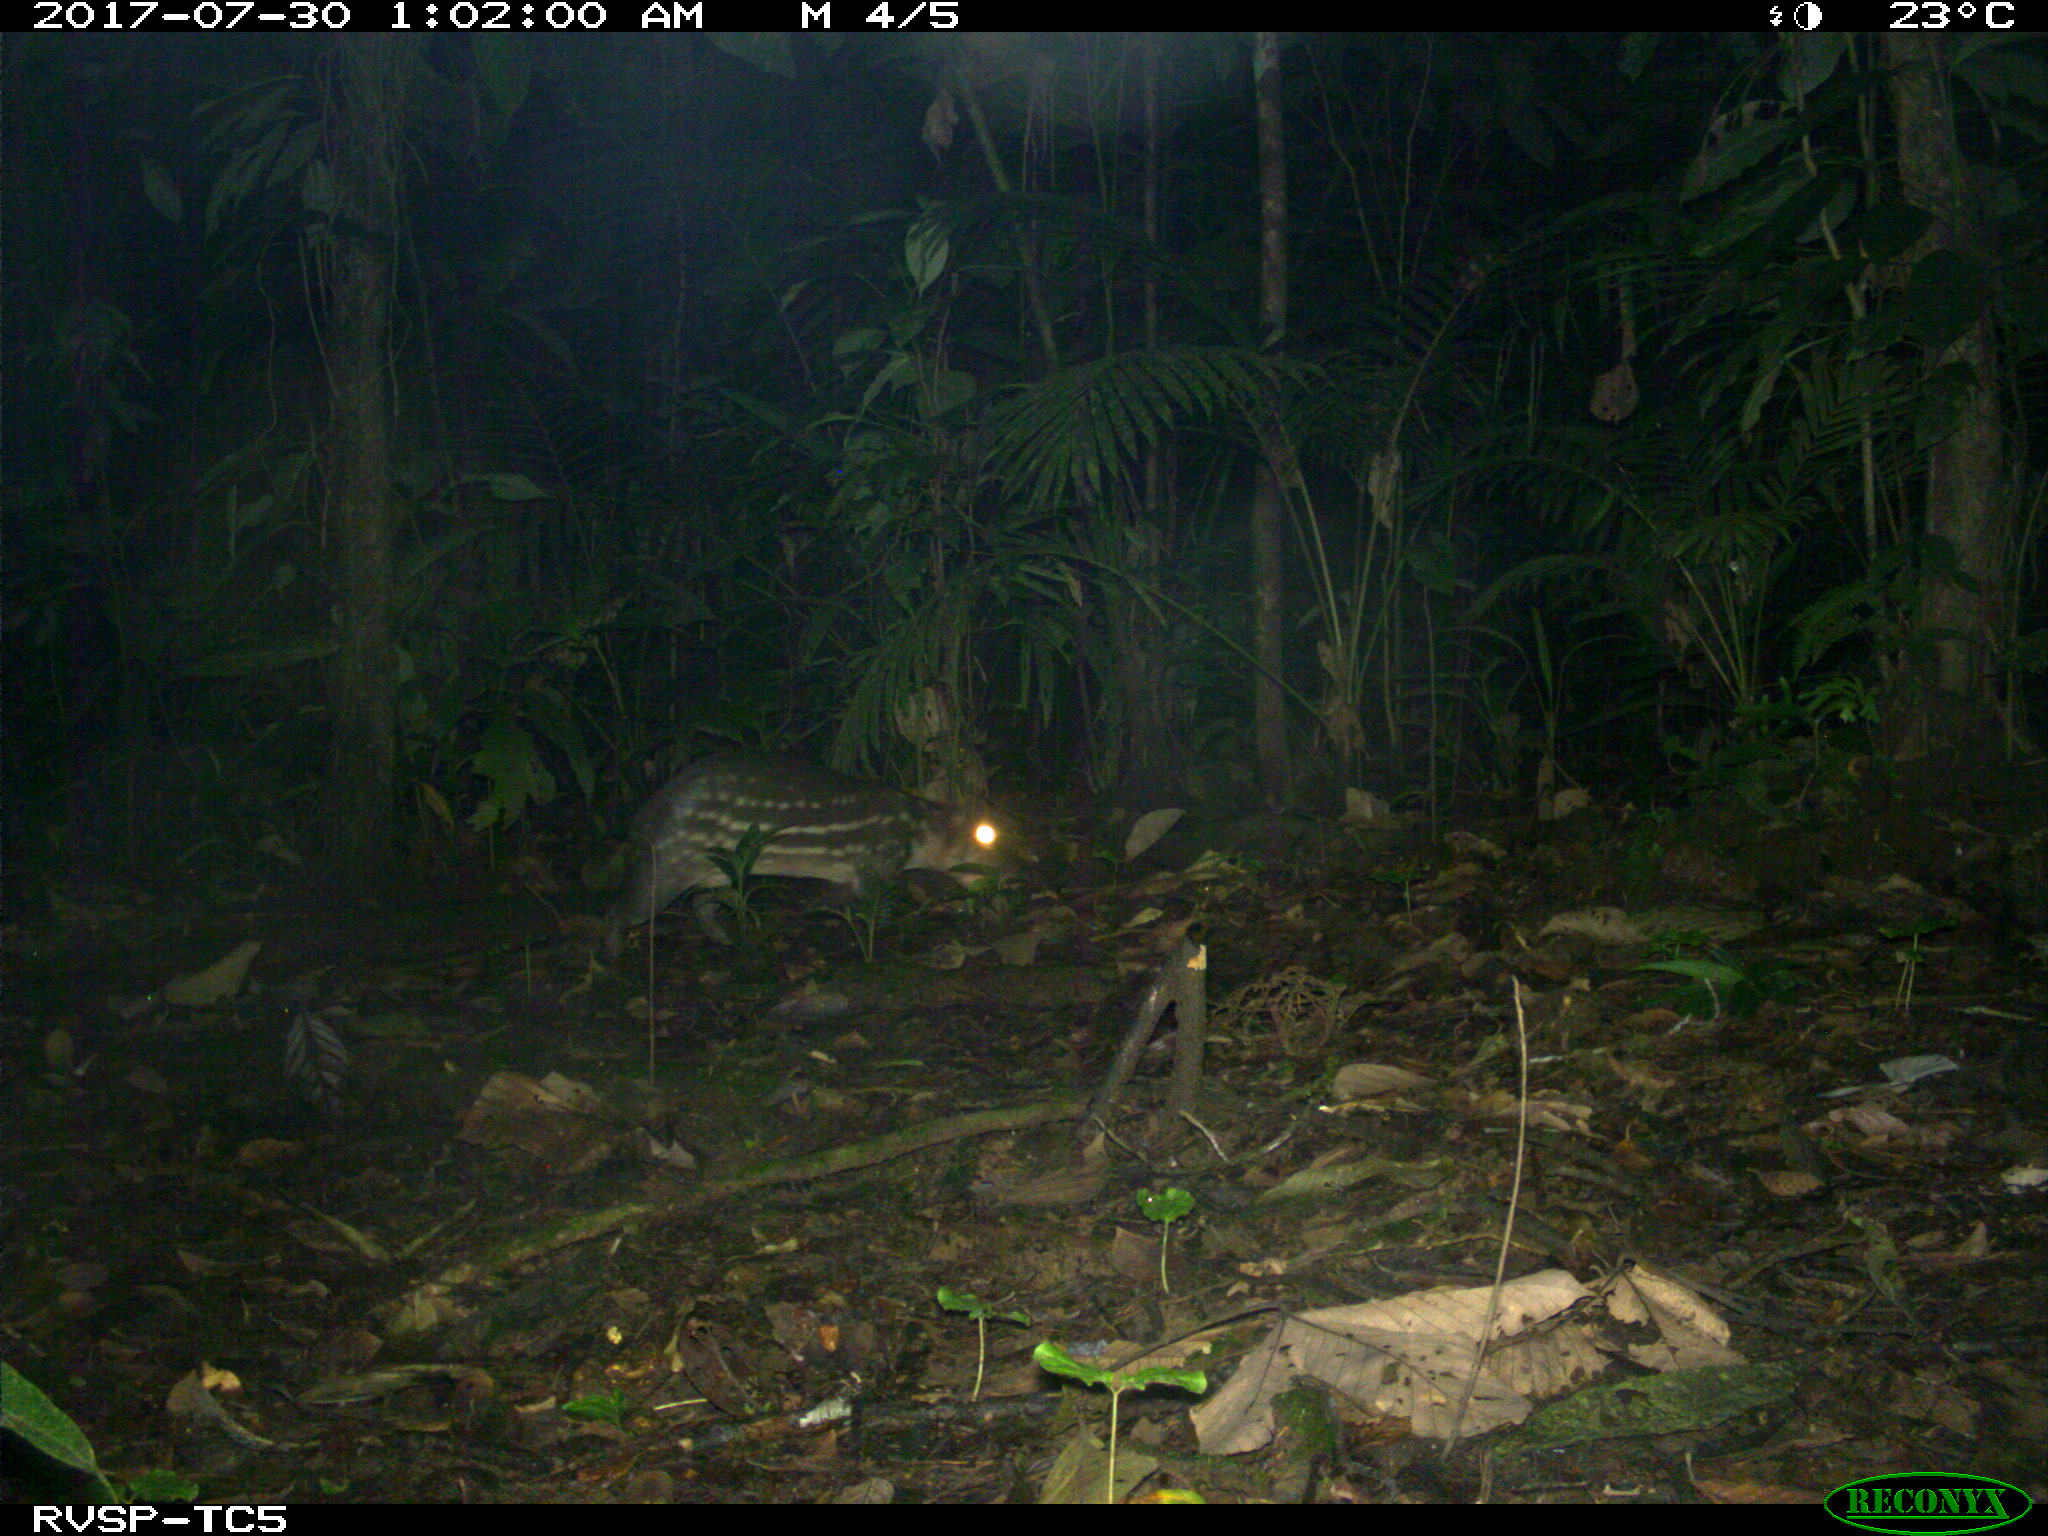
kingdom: Animalia
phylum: Chordata
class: Mammalia
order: Rodentia
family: Cuniculidae
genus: Cuniculus
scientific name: Cuniculus paca
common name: Lowland paca
